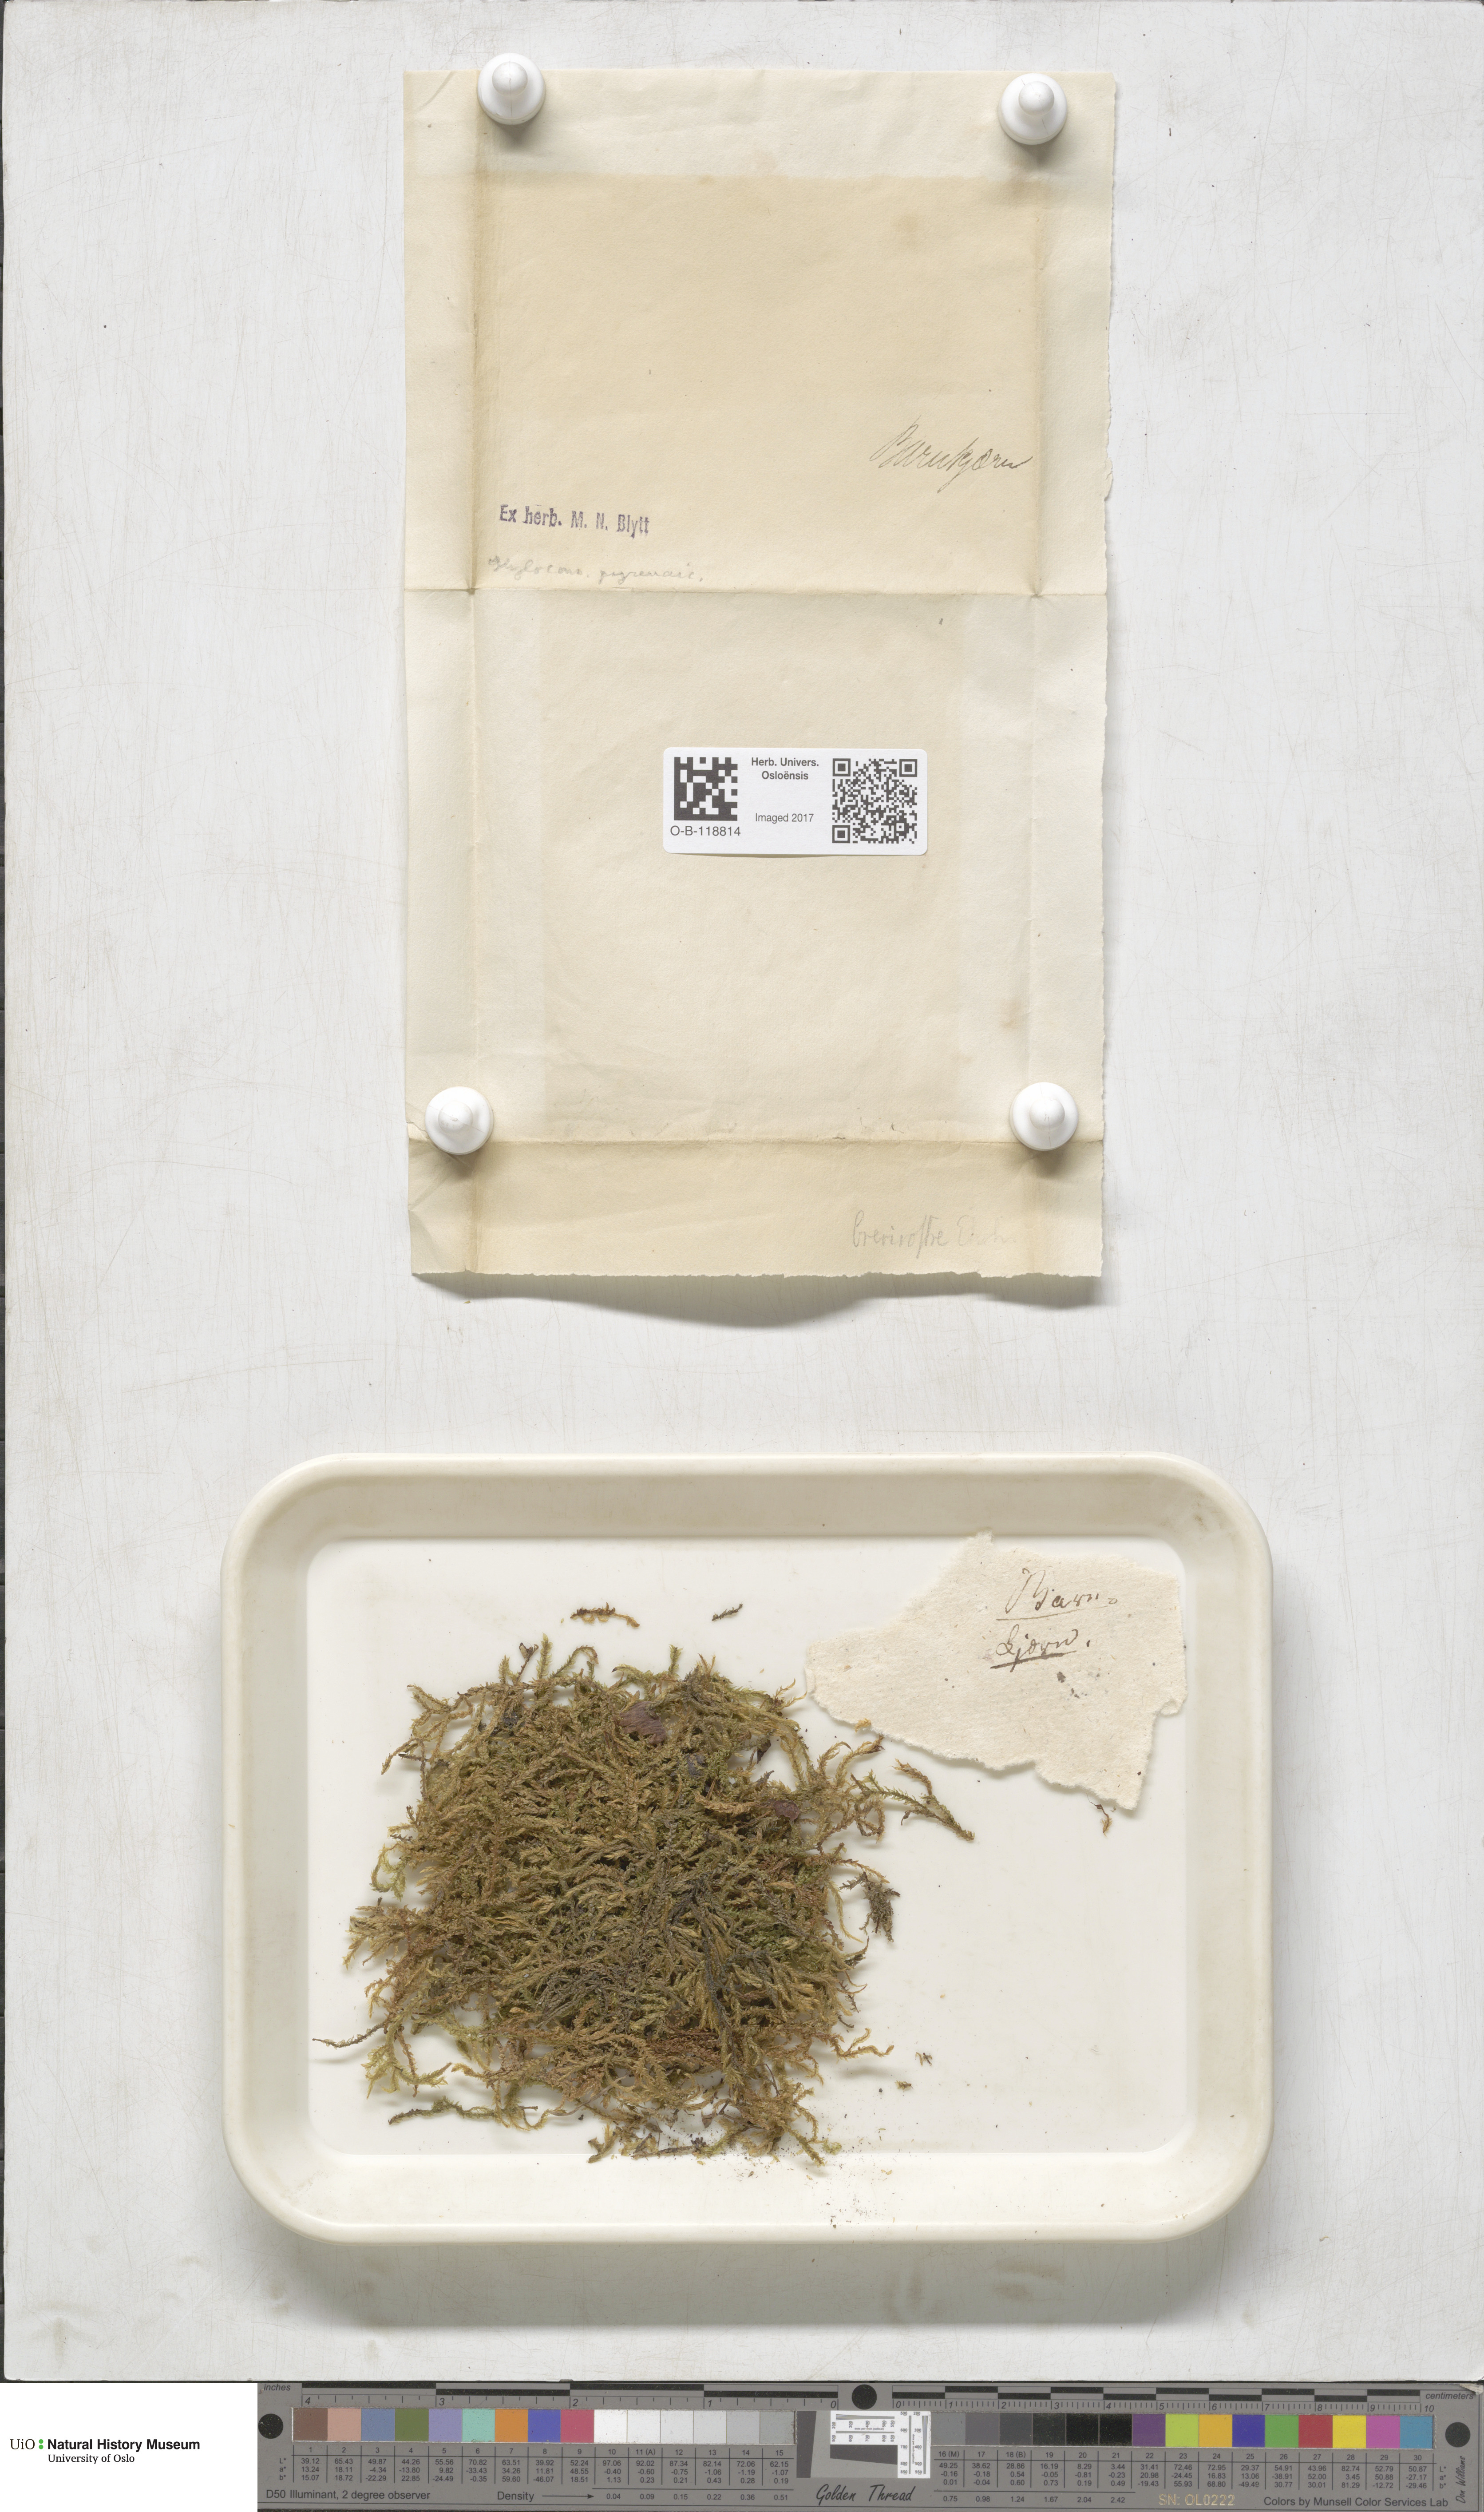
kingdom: Plantae
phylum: Bryophyta
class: Bryopsida
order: Hypnales
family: Hylocomiaceae
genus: Hylocomiastrum
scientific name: Hylocomiastrum pyrenaicum
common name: Oake s wood moss
